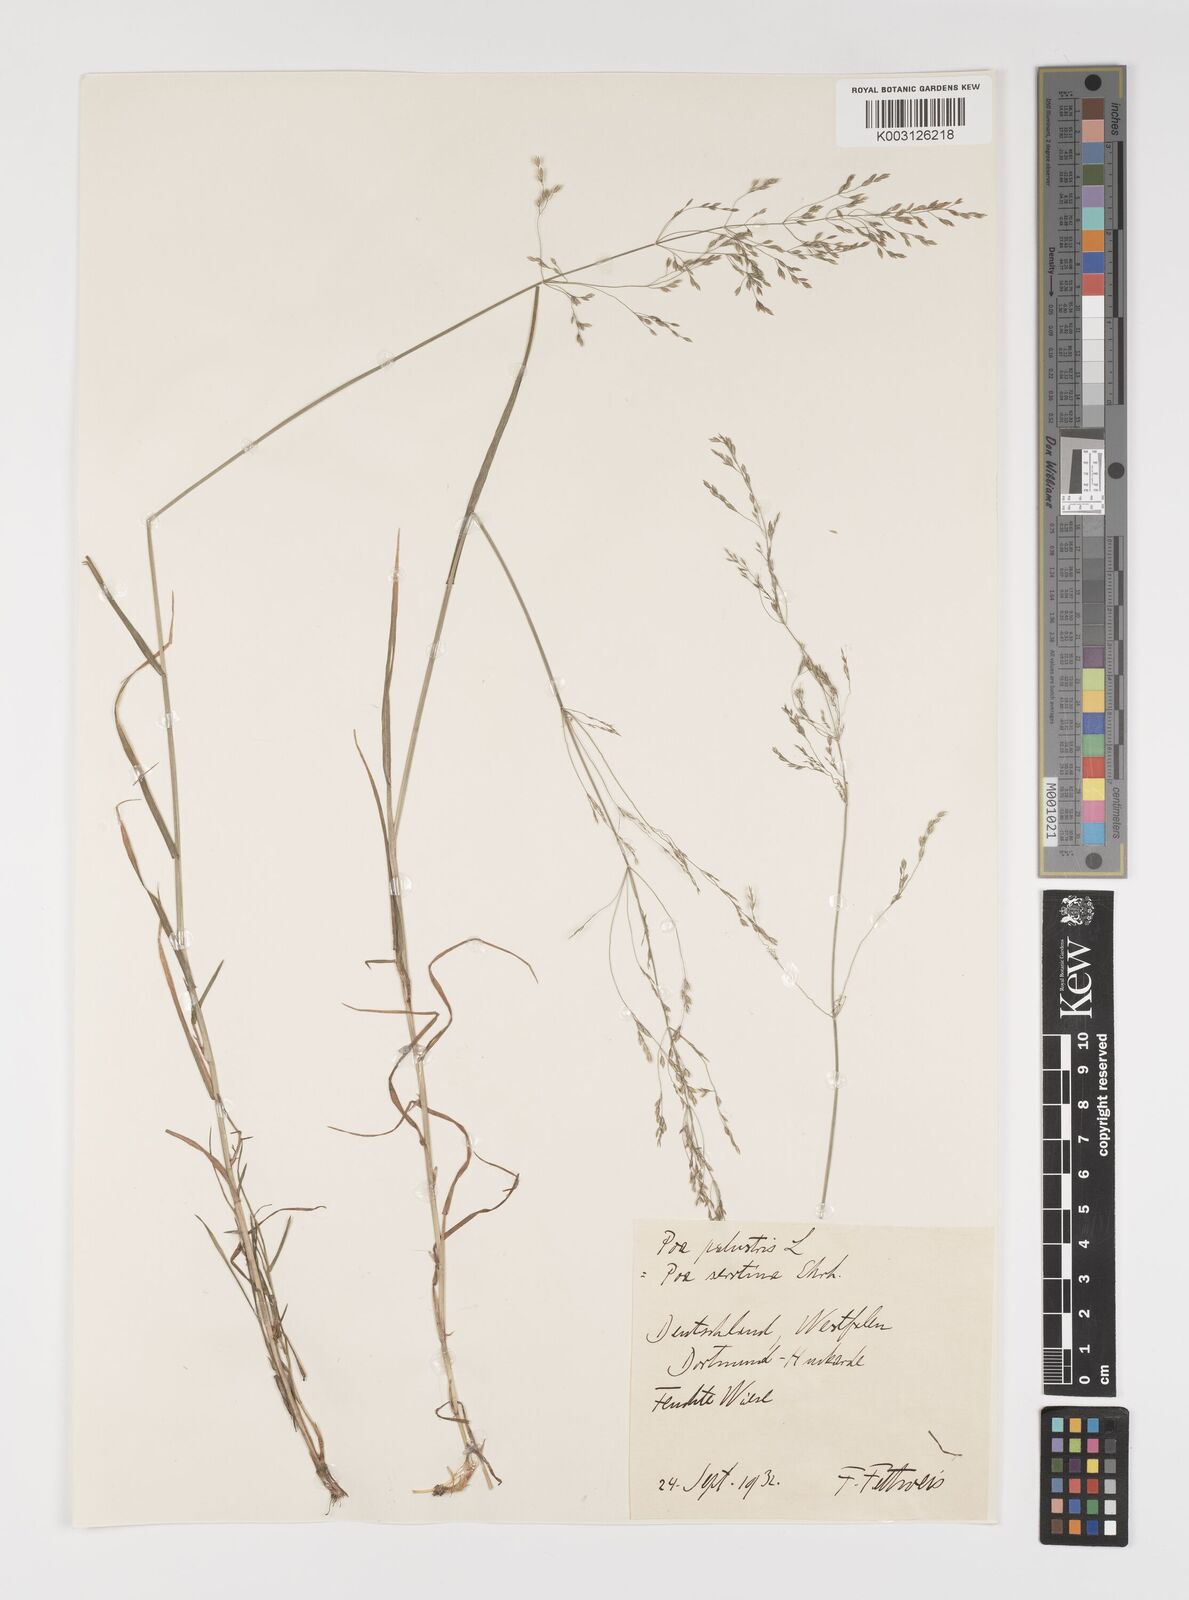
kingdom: Plantae
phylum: Tracheophyta
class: Liliopsida
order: Poales
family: Poaceae
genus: Poa
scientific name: Poa palustris
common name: Swamp meadow-grass
